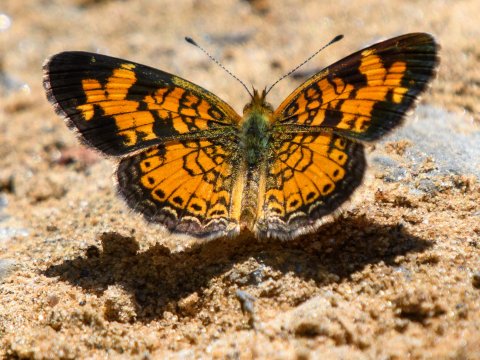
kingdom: Animalia
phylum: Arthropoda
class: Insecta
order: Lepidoptera
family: Nymphalidae
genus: Phyciodes
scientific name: Phyciodes tharos
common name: Pearl Crescent
